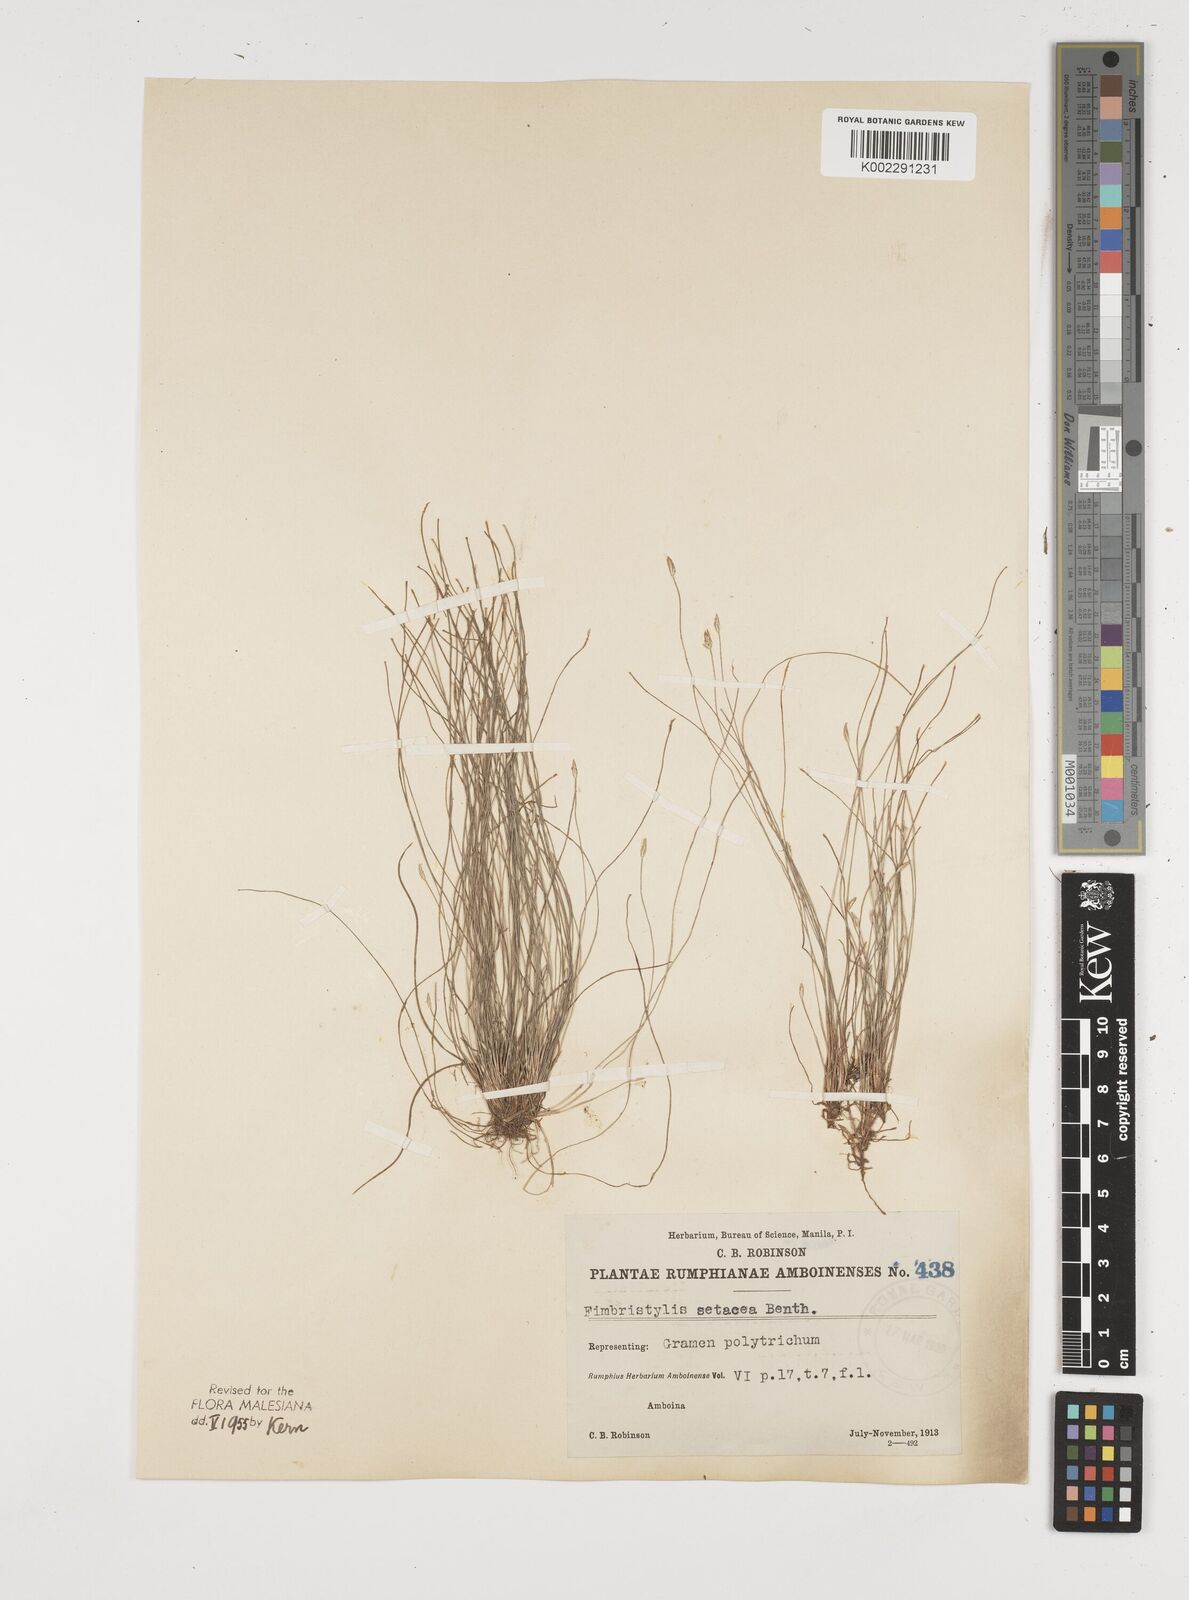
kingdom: Plantae
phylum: Tracheophyta
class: Liliopsida
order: Poales
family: Cyperaceae
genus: Fimbristylis
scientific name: Fimbristylis acicularis
